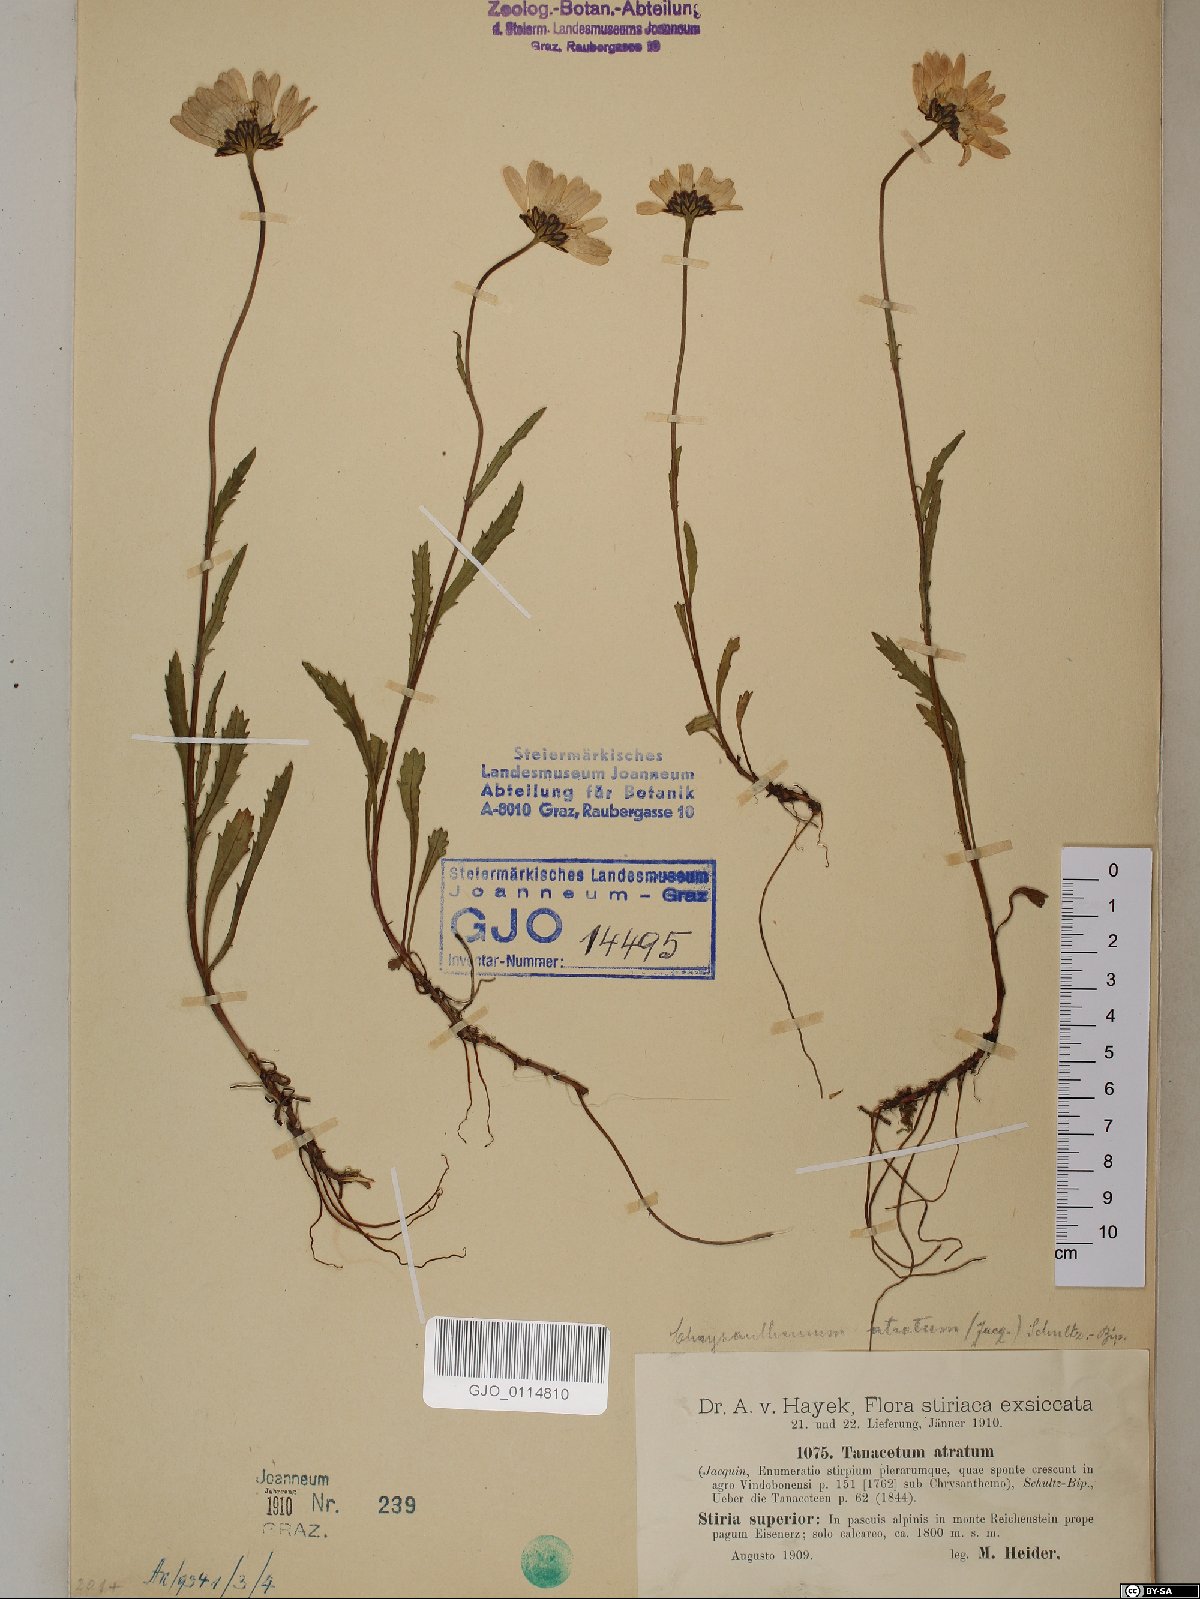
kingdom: Plantae
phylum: Tracheophyta
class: Magnoliopsida
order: Asterales
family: Asteraceae
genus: Leucanthemum
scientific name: Leucanthemum atratum
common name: Saw-leaved moon-daisy
